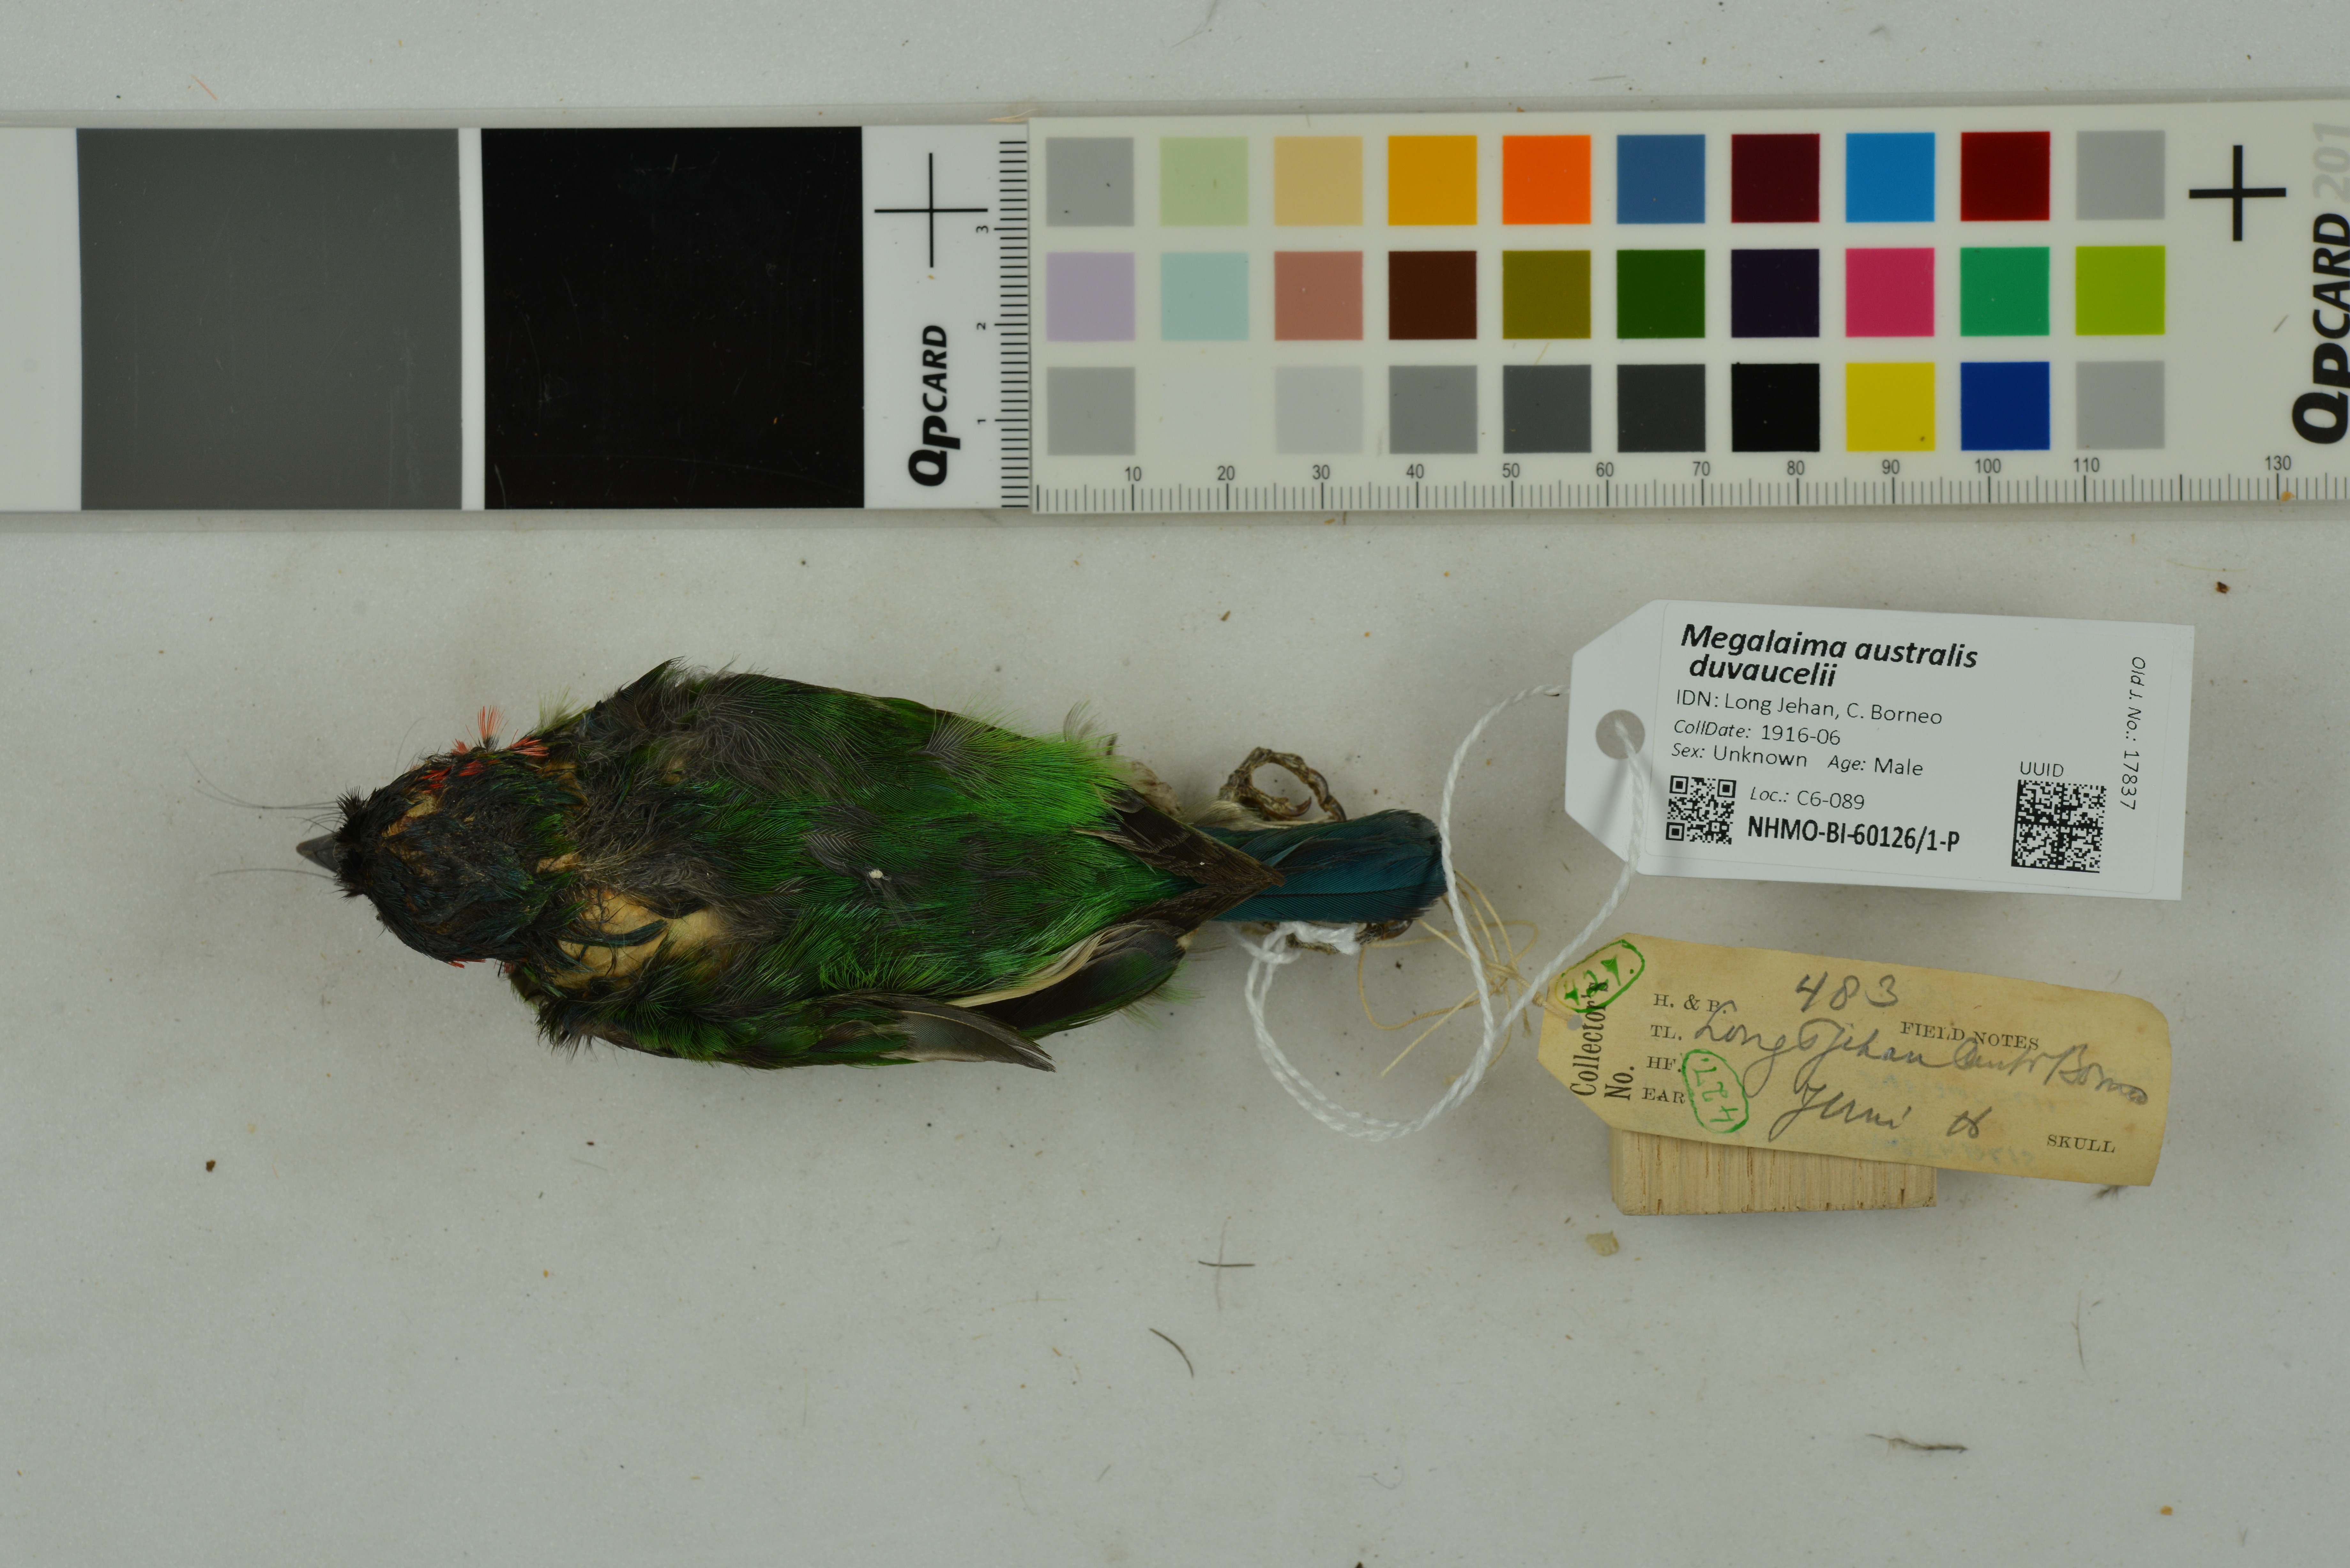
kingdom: Animalia
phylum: Chordata
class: Aves
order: Piciformes
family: Megalaimidae
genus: Psilopogon
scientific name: Psilopogon duvaucelii
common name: Blue-eared barbet
